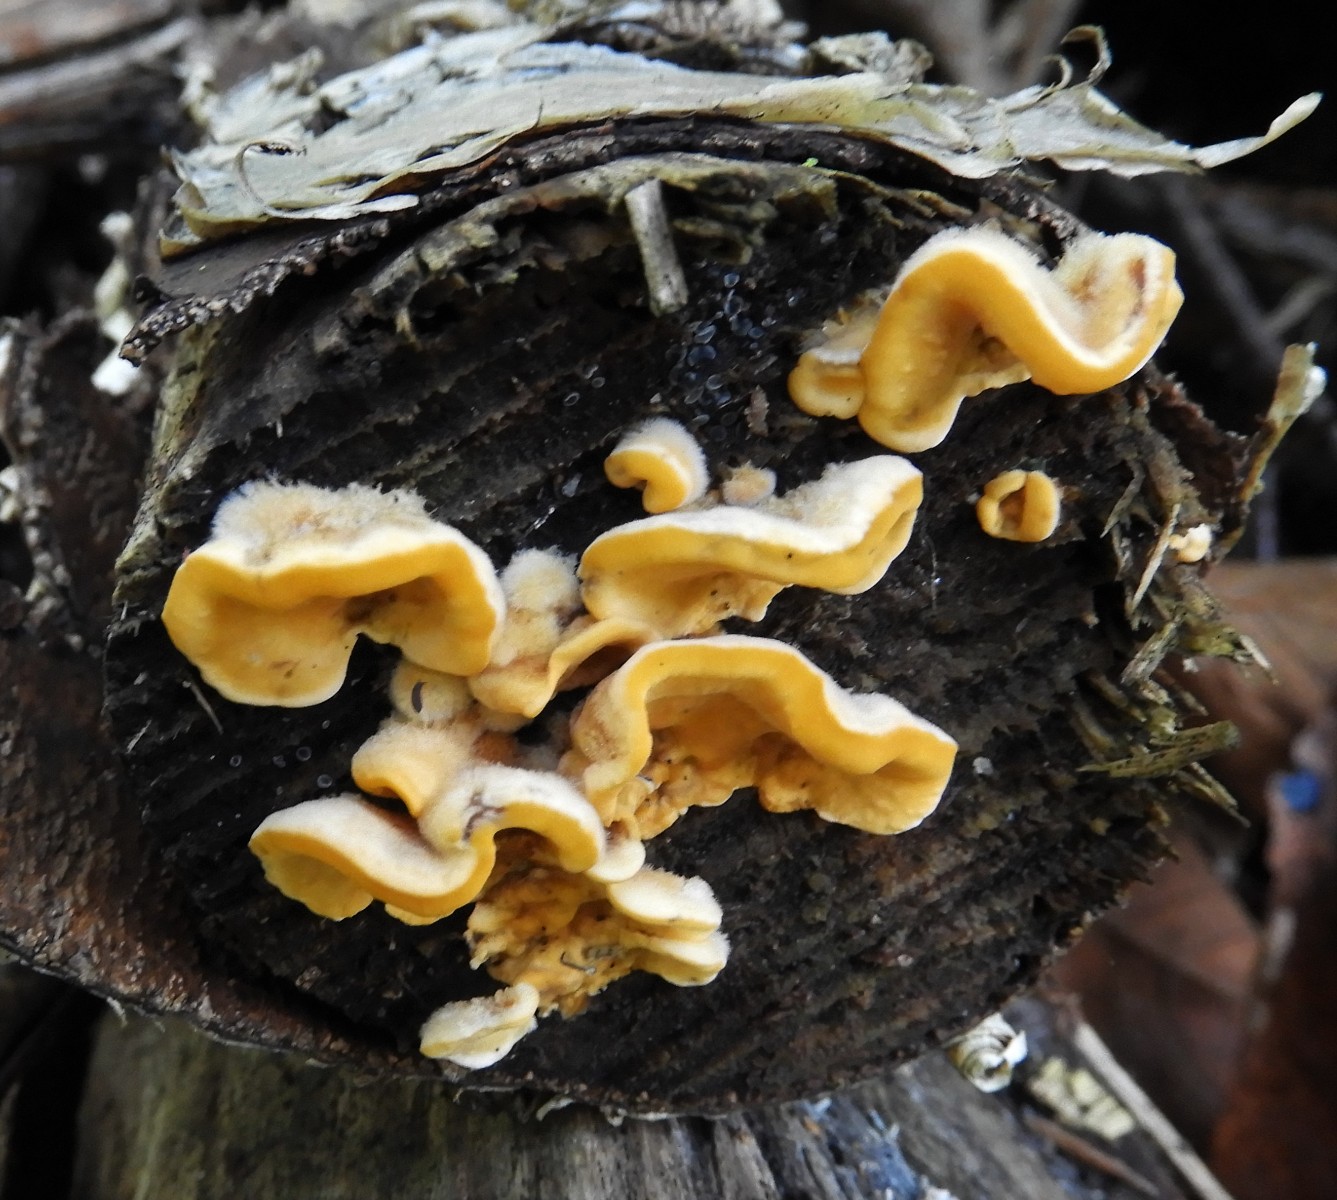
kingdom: Fungi
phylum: Basidiomycota
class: Agaricomycetes
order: Russulales
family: Stereaceae
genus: Stereum
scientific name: Stereum hirsutum
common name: håret lædersvamp
